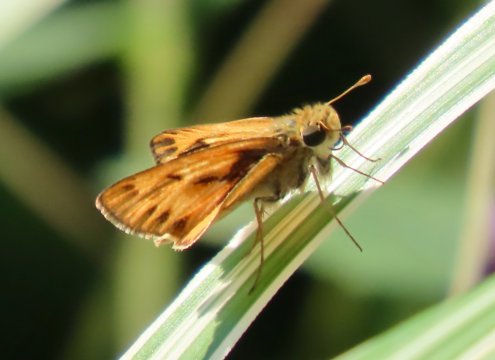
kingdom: Animalia
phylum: Arthropoda
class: Insecta
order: Lepidoptera
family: Hesperiidae
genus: Hylephila
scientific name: Hylephila phyleus
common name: Fiery Skipper
